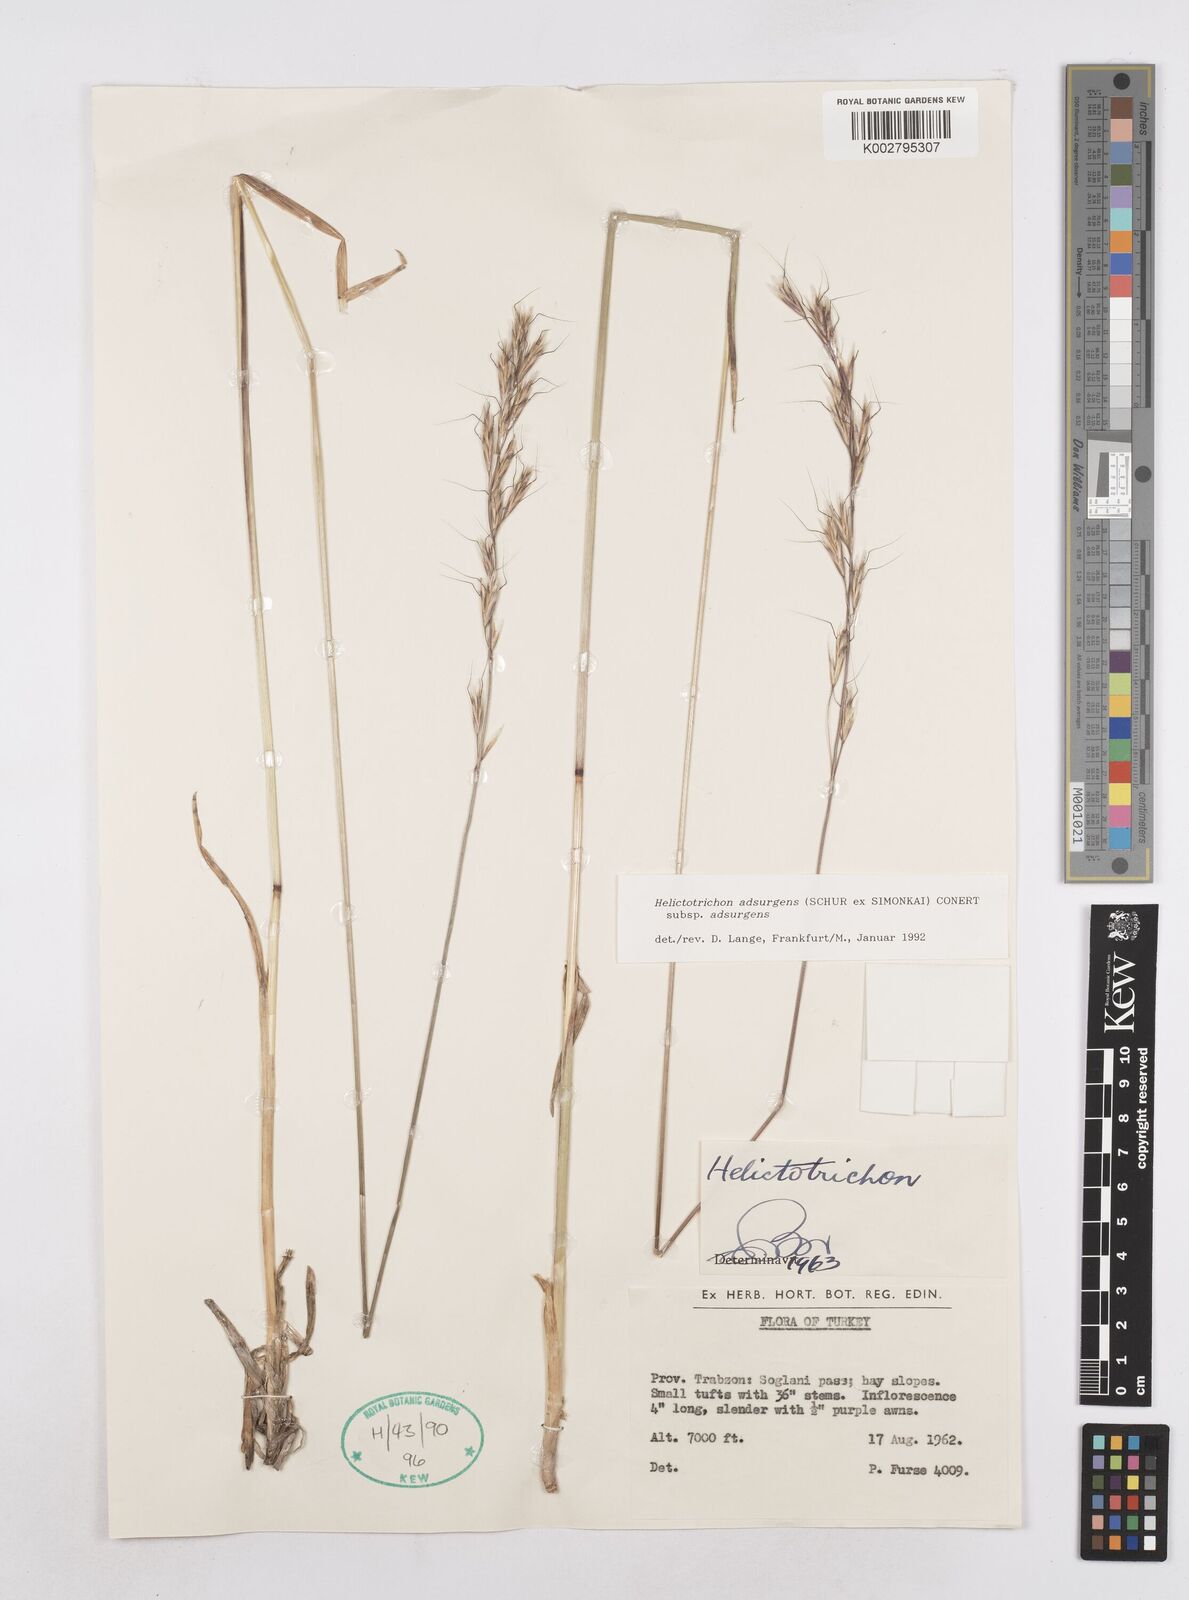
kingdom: Plantae
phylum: Tracheophyta
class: Liliopsida
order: Poales
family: Poaceae
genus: Helictochloa
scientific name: Helictochloa pratensis
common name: Meadow oat grass
